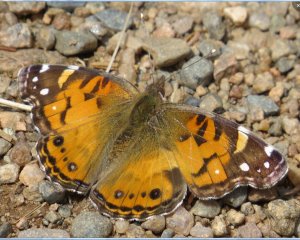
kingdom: Animalia
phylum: Arthropoda
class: Insecta
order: Lepidoptera
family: Nymphalidae
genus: Vanessa
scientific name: Vanessa virginiensis
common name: American Lady
